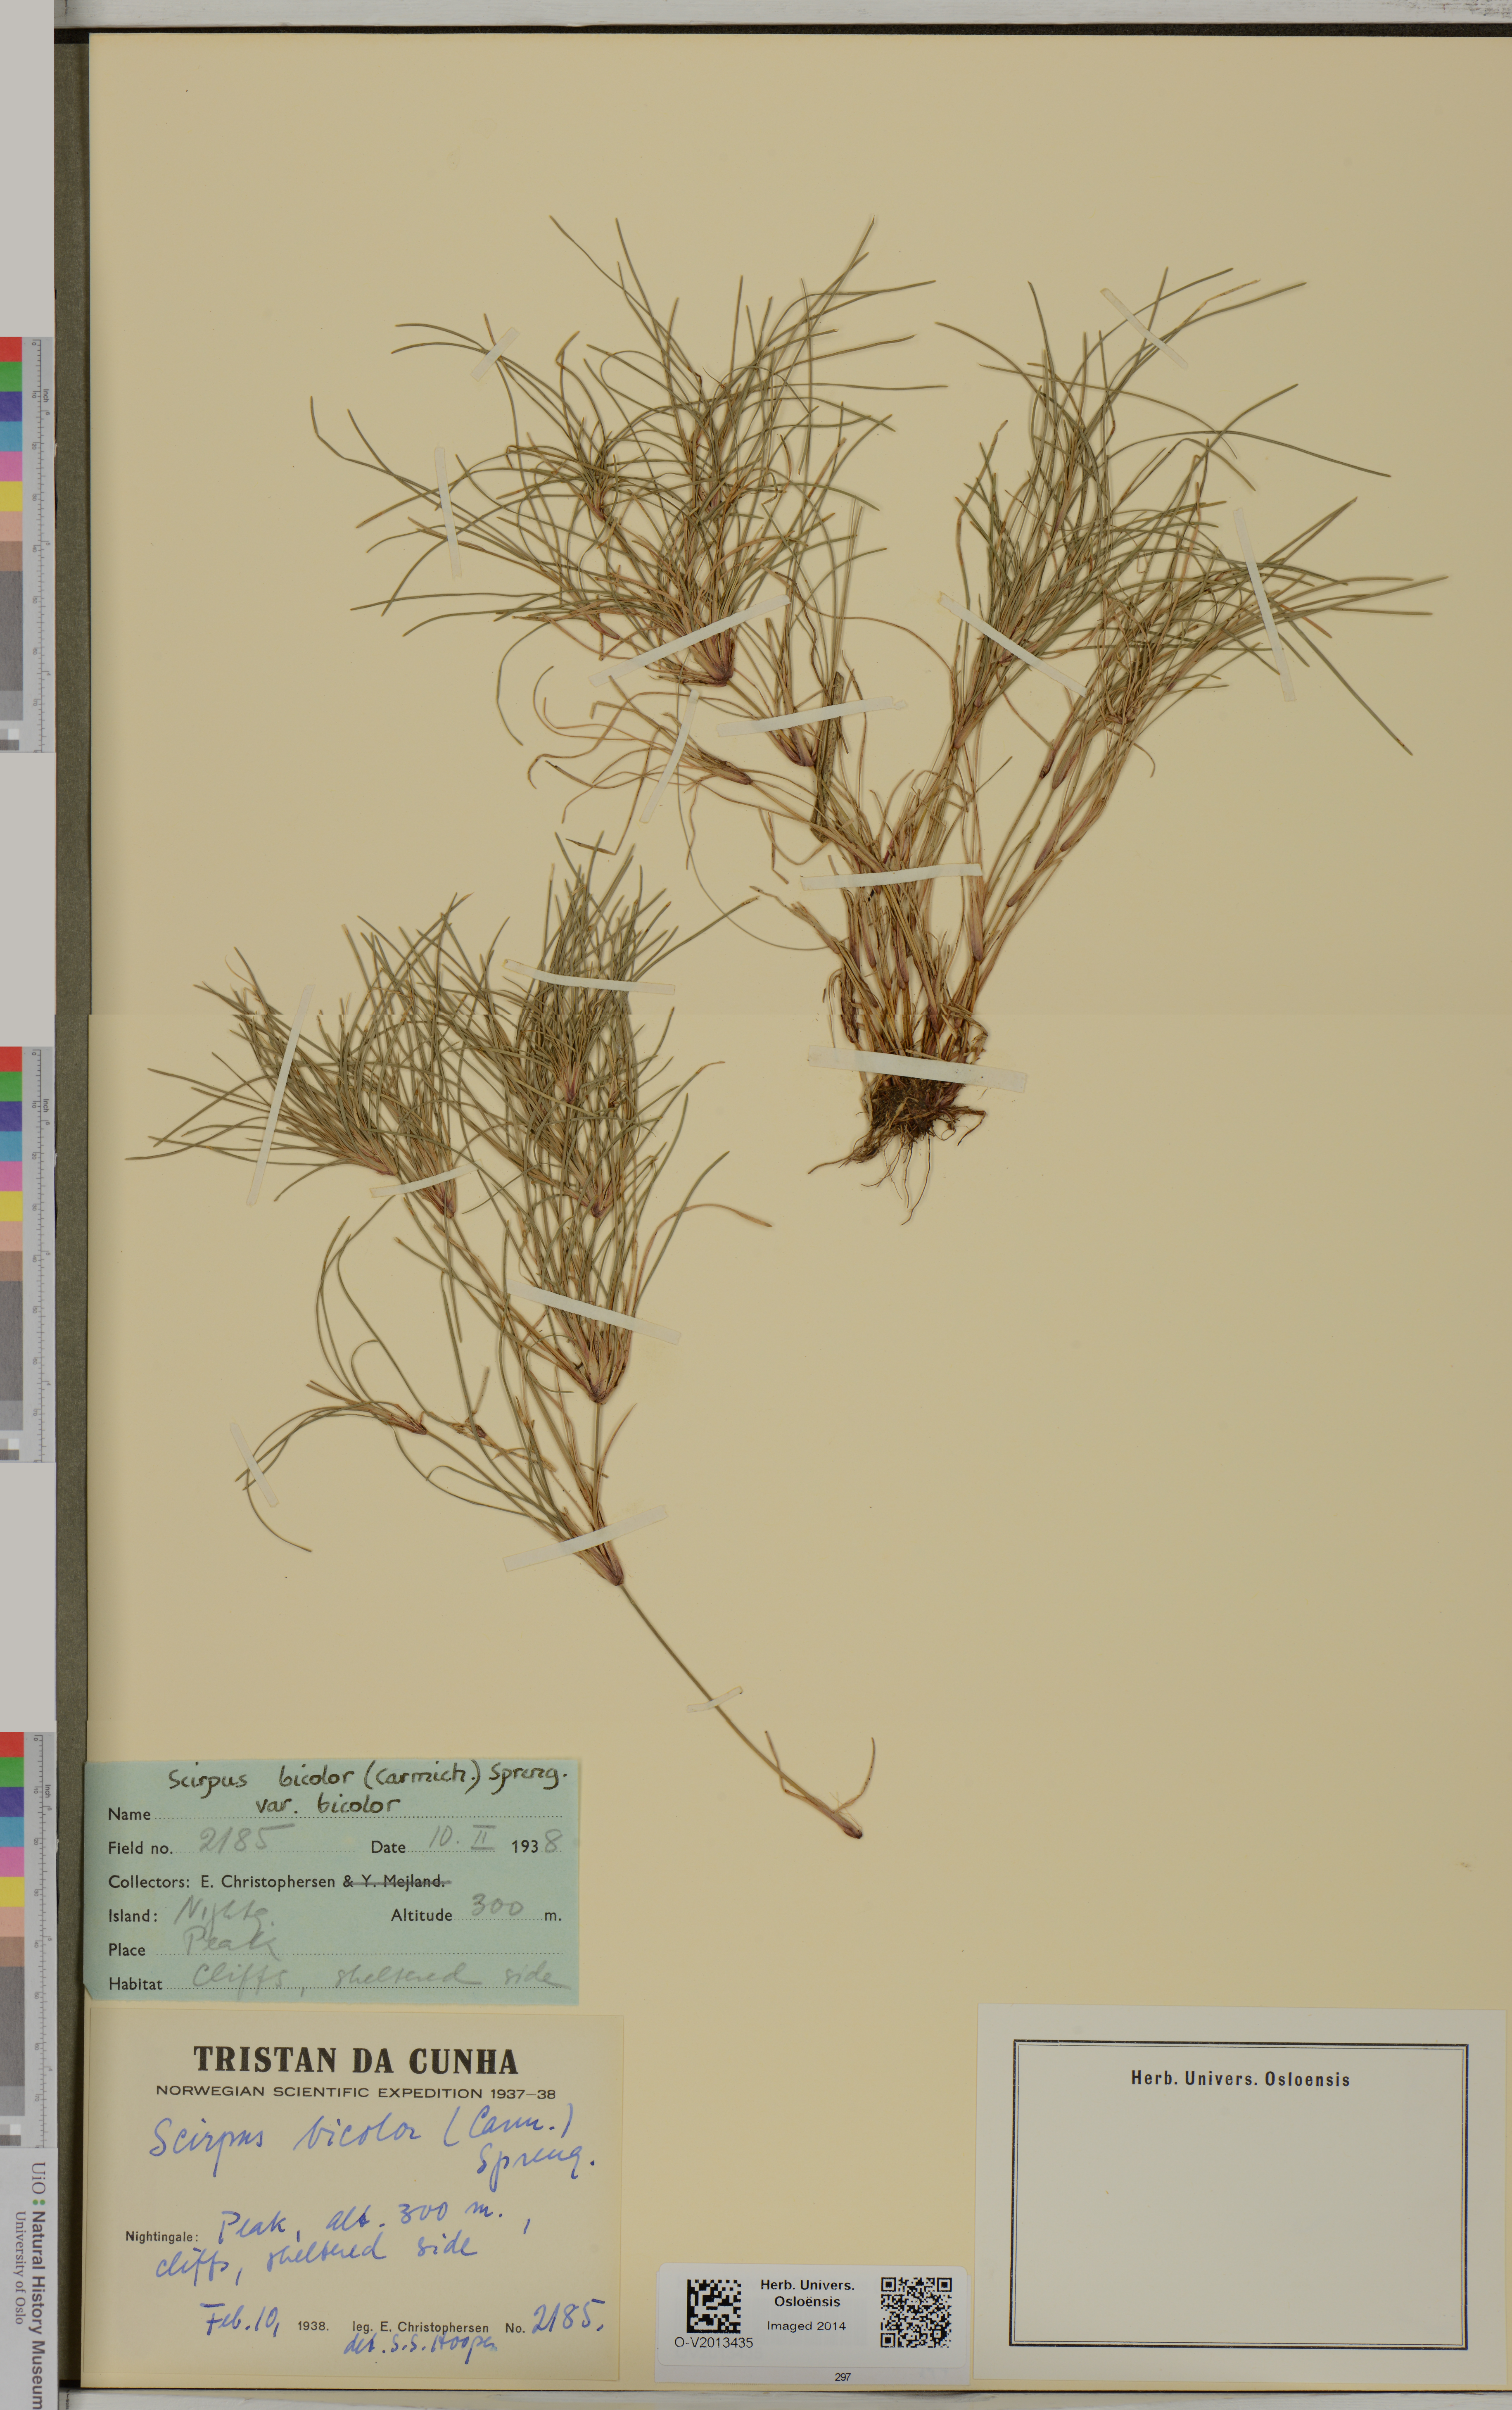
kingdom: Plantae
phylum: Tracheophyta
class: Liliopsida
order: Poales
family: Cyperaceae
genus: Isolepis
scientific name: Isolepis bicolor
